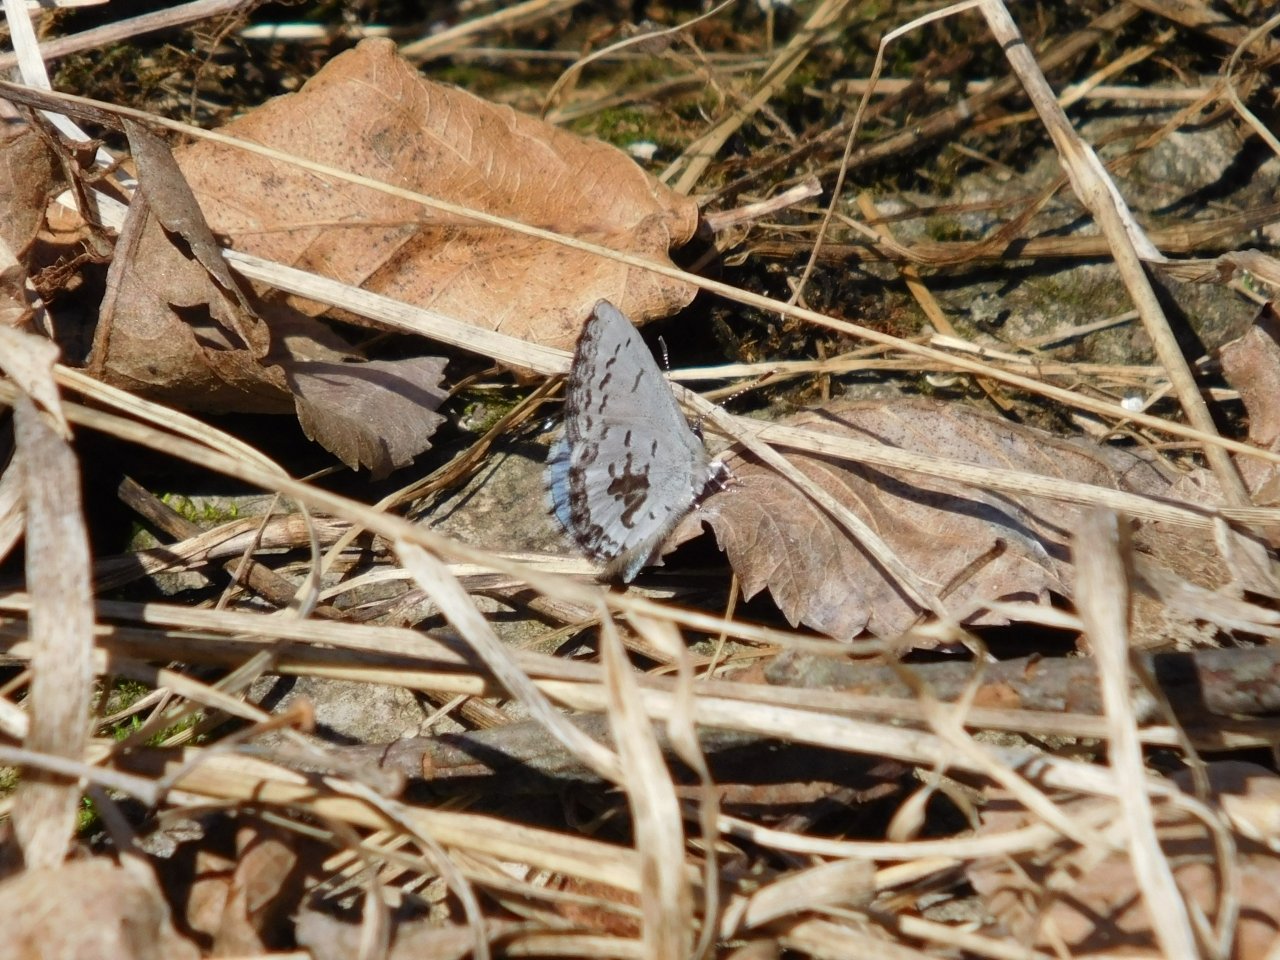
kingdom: Animalia
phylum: Arthropoda
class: Insecta
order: Lepidoptera
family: Lycaenidae
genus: Celastrina
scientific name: Celastrina lucia
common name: Northern Spring Azure
